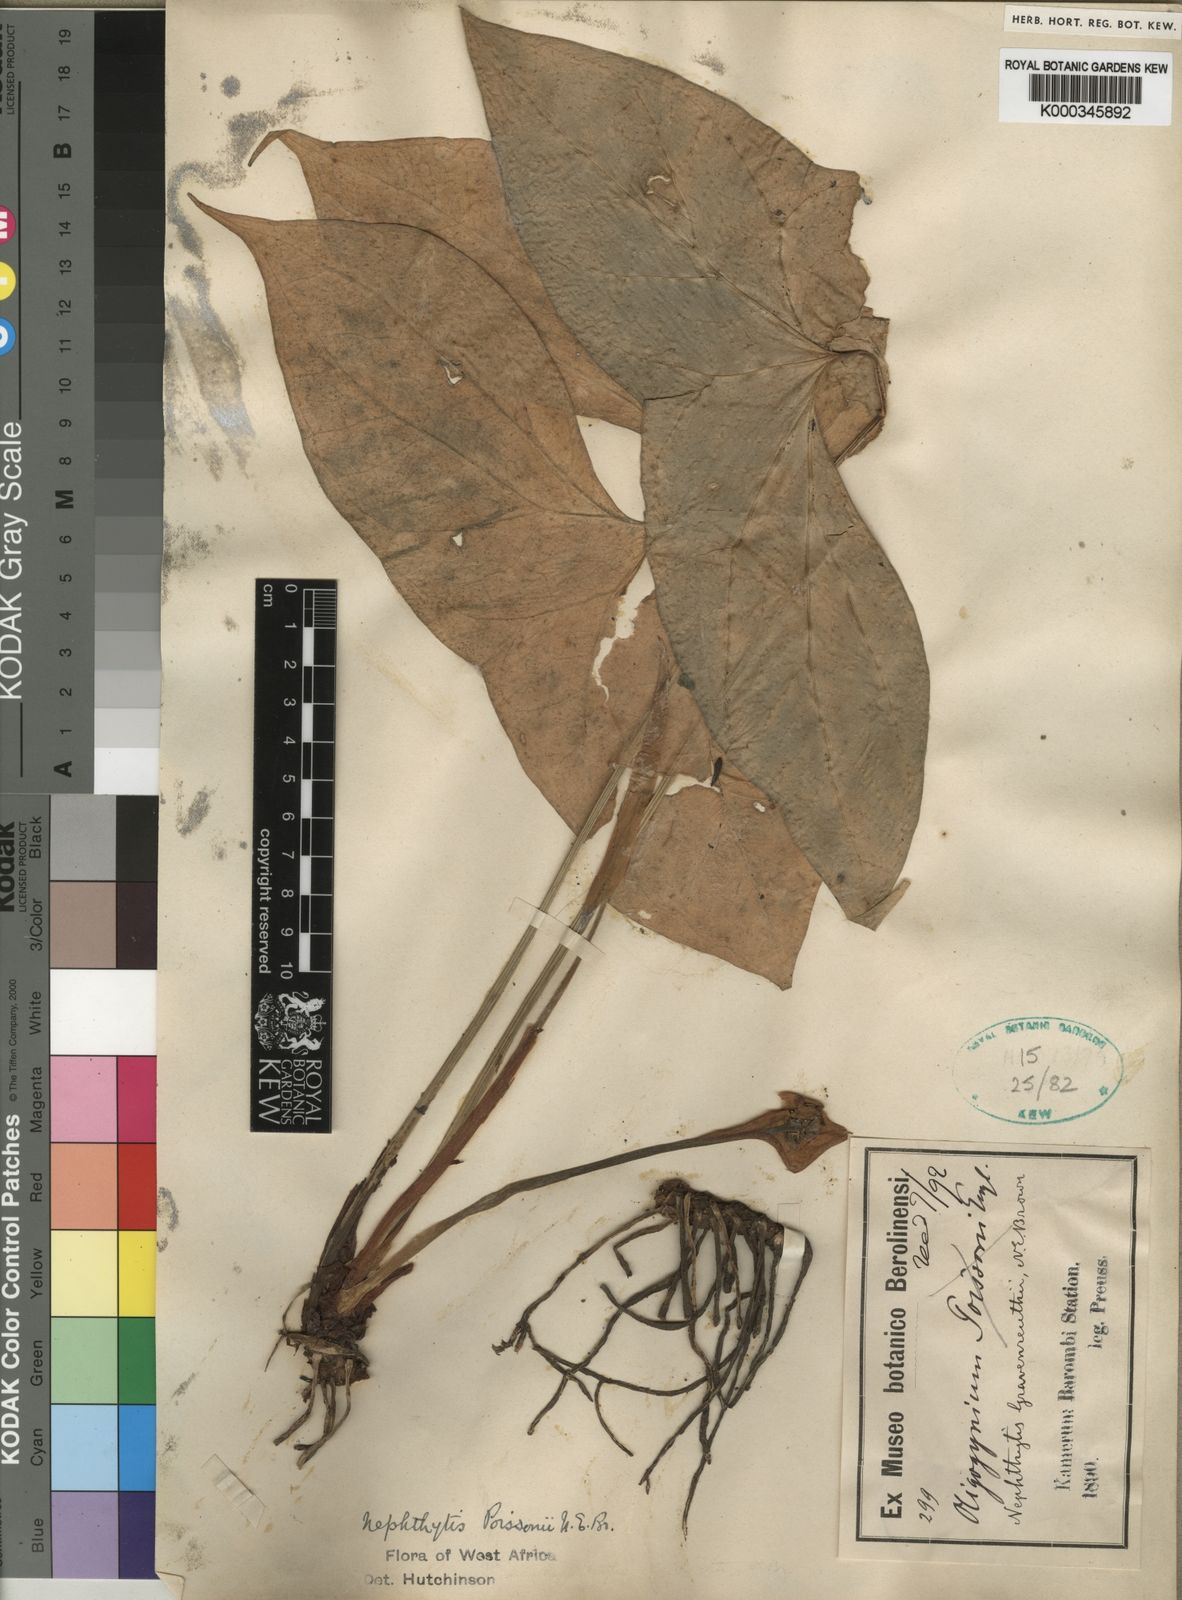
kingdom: Plantae
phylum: Tracheophyta
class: Liliopsida
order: Alismatales
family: Araceae
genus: Nephthytis
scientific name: Nephthytis poissonii
